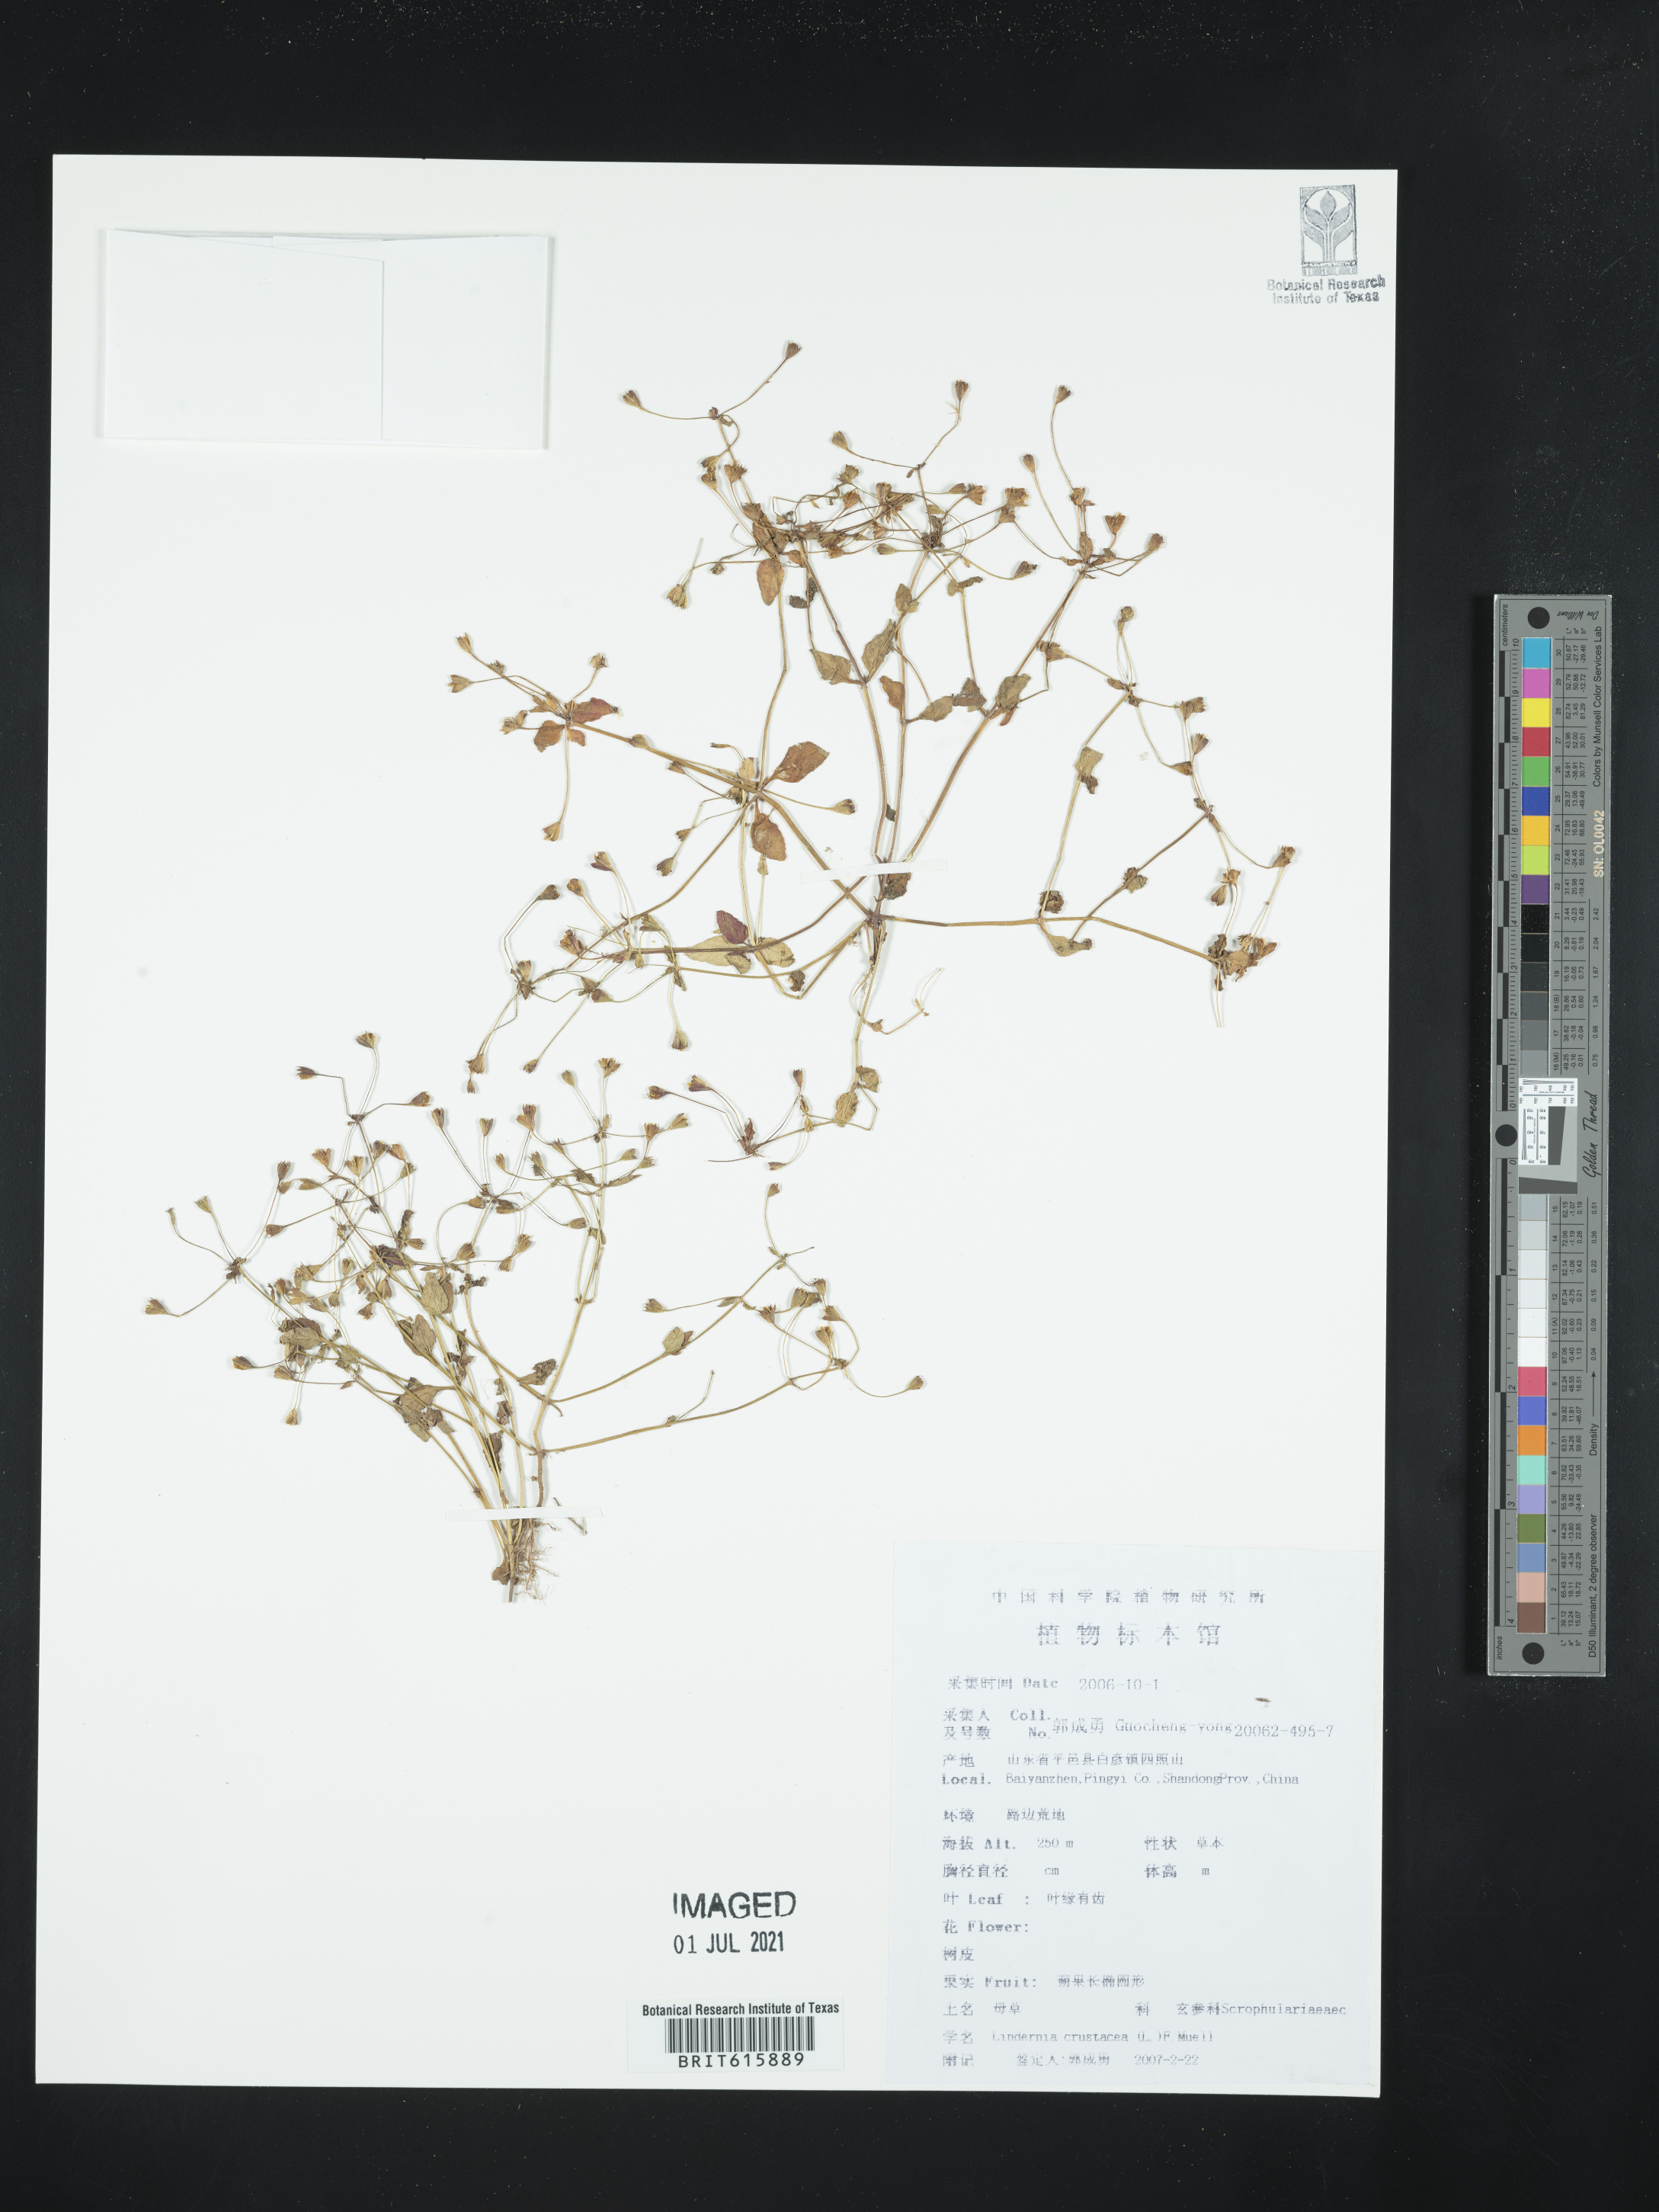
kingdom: Plantae
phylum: Tracheophyta
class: Magnoliopsida
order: Lamiales
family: Linderniaceae
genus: Torenia
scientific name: Torenia crustacea
